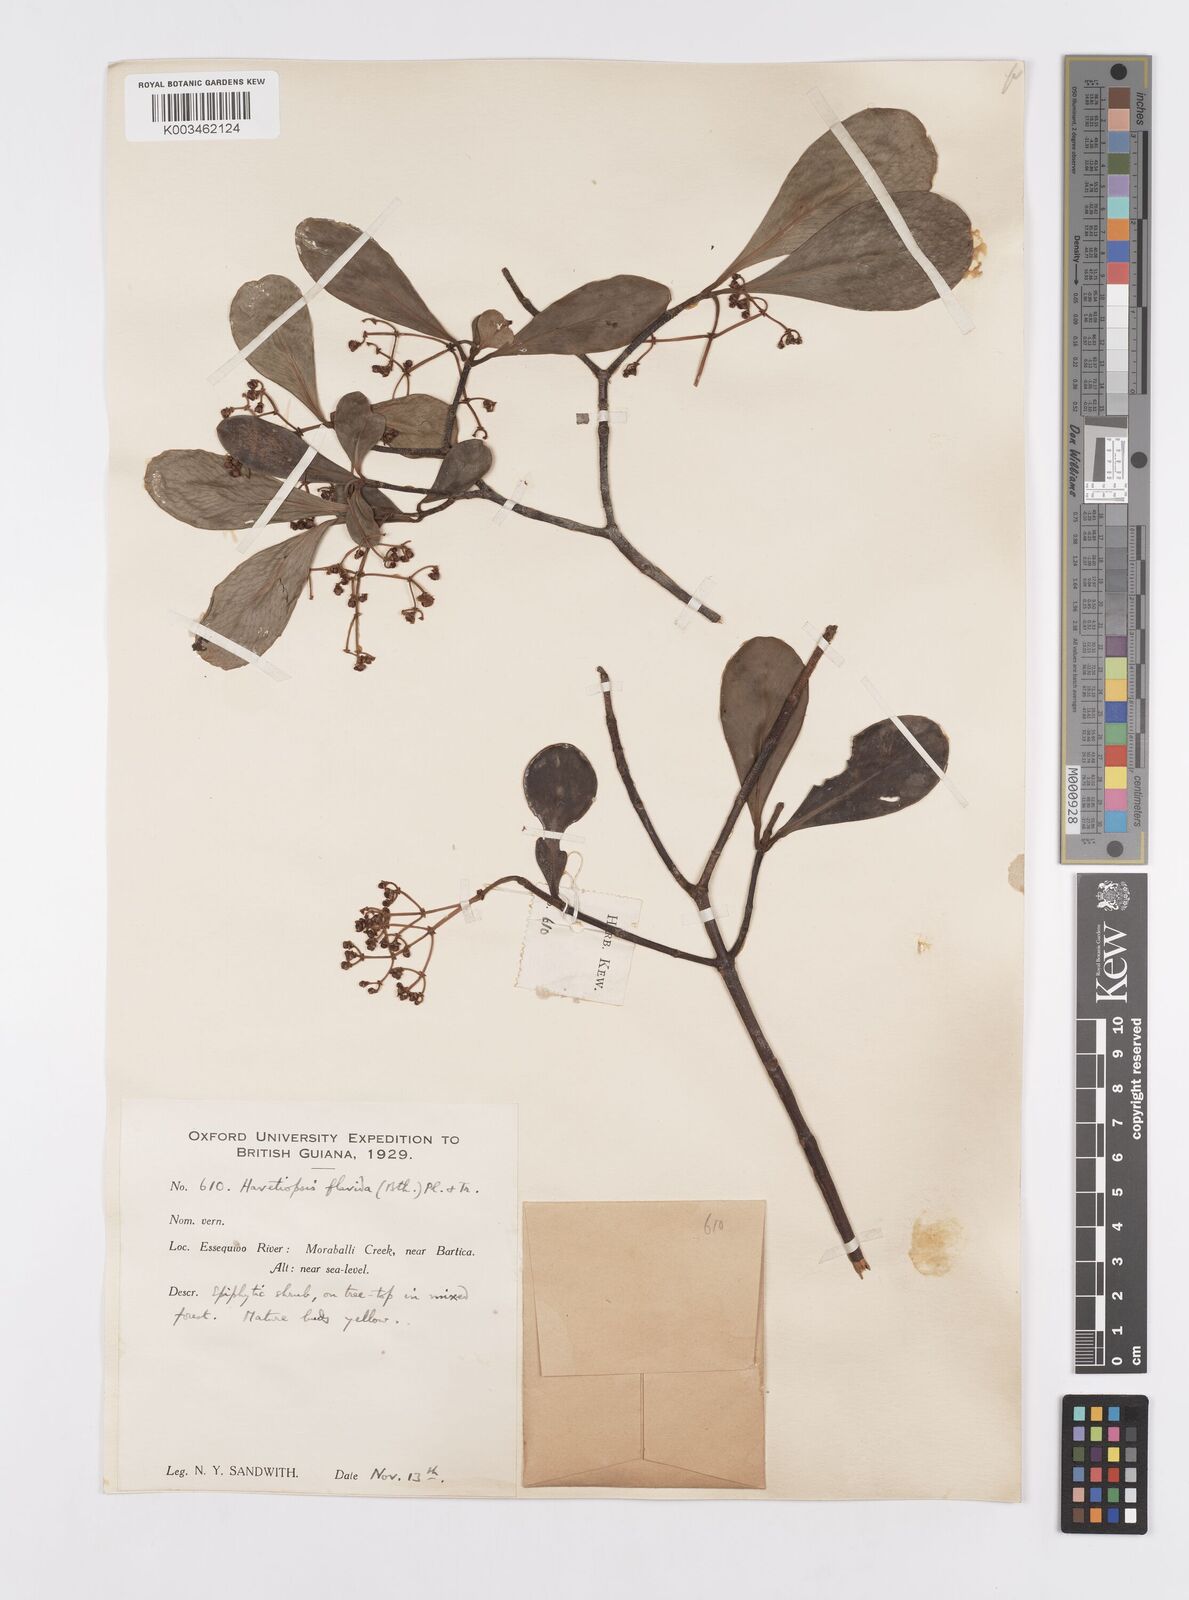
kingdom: Plantae
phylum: Tracheophyta
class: Magnoliopsida
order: Malpighiales
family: Clusiaceae
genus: Clusia
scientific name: Clusia flavida
